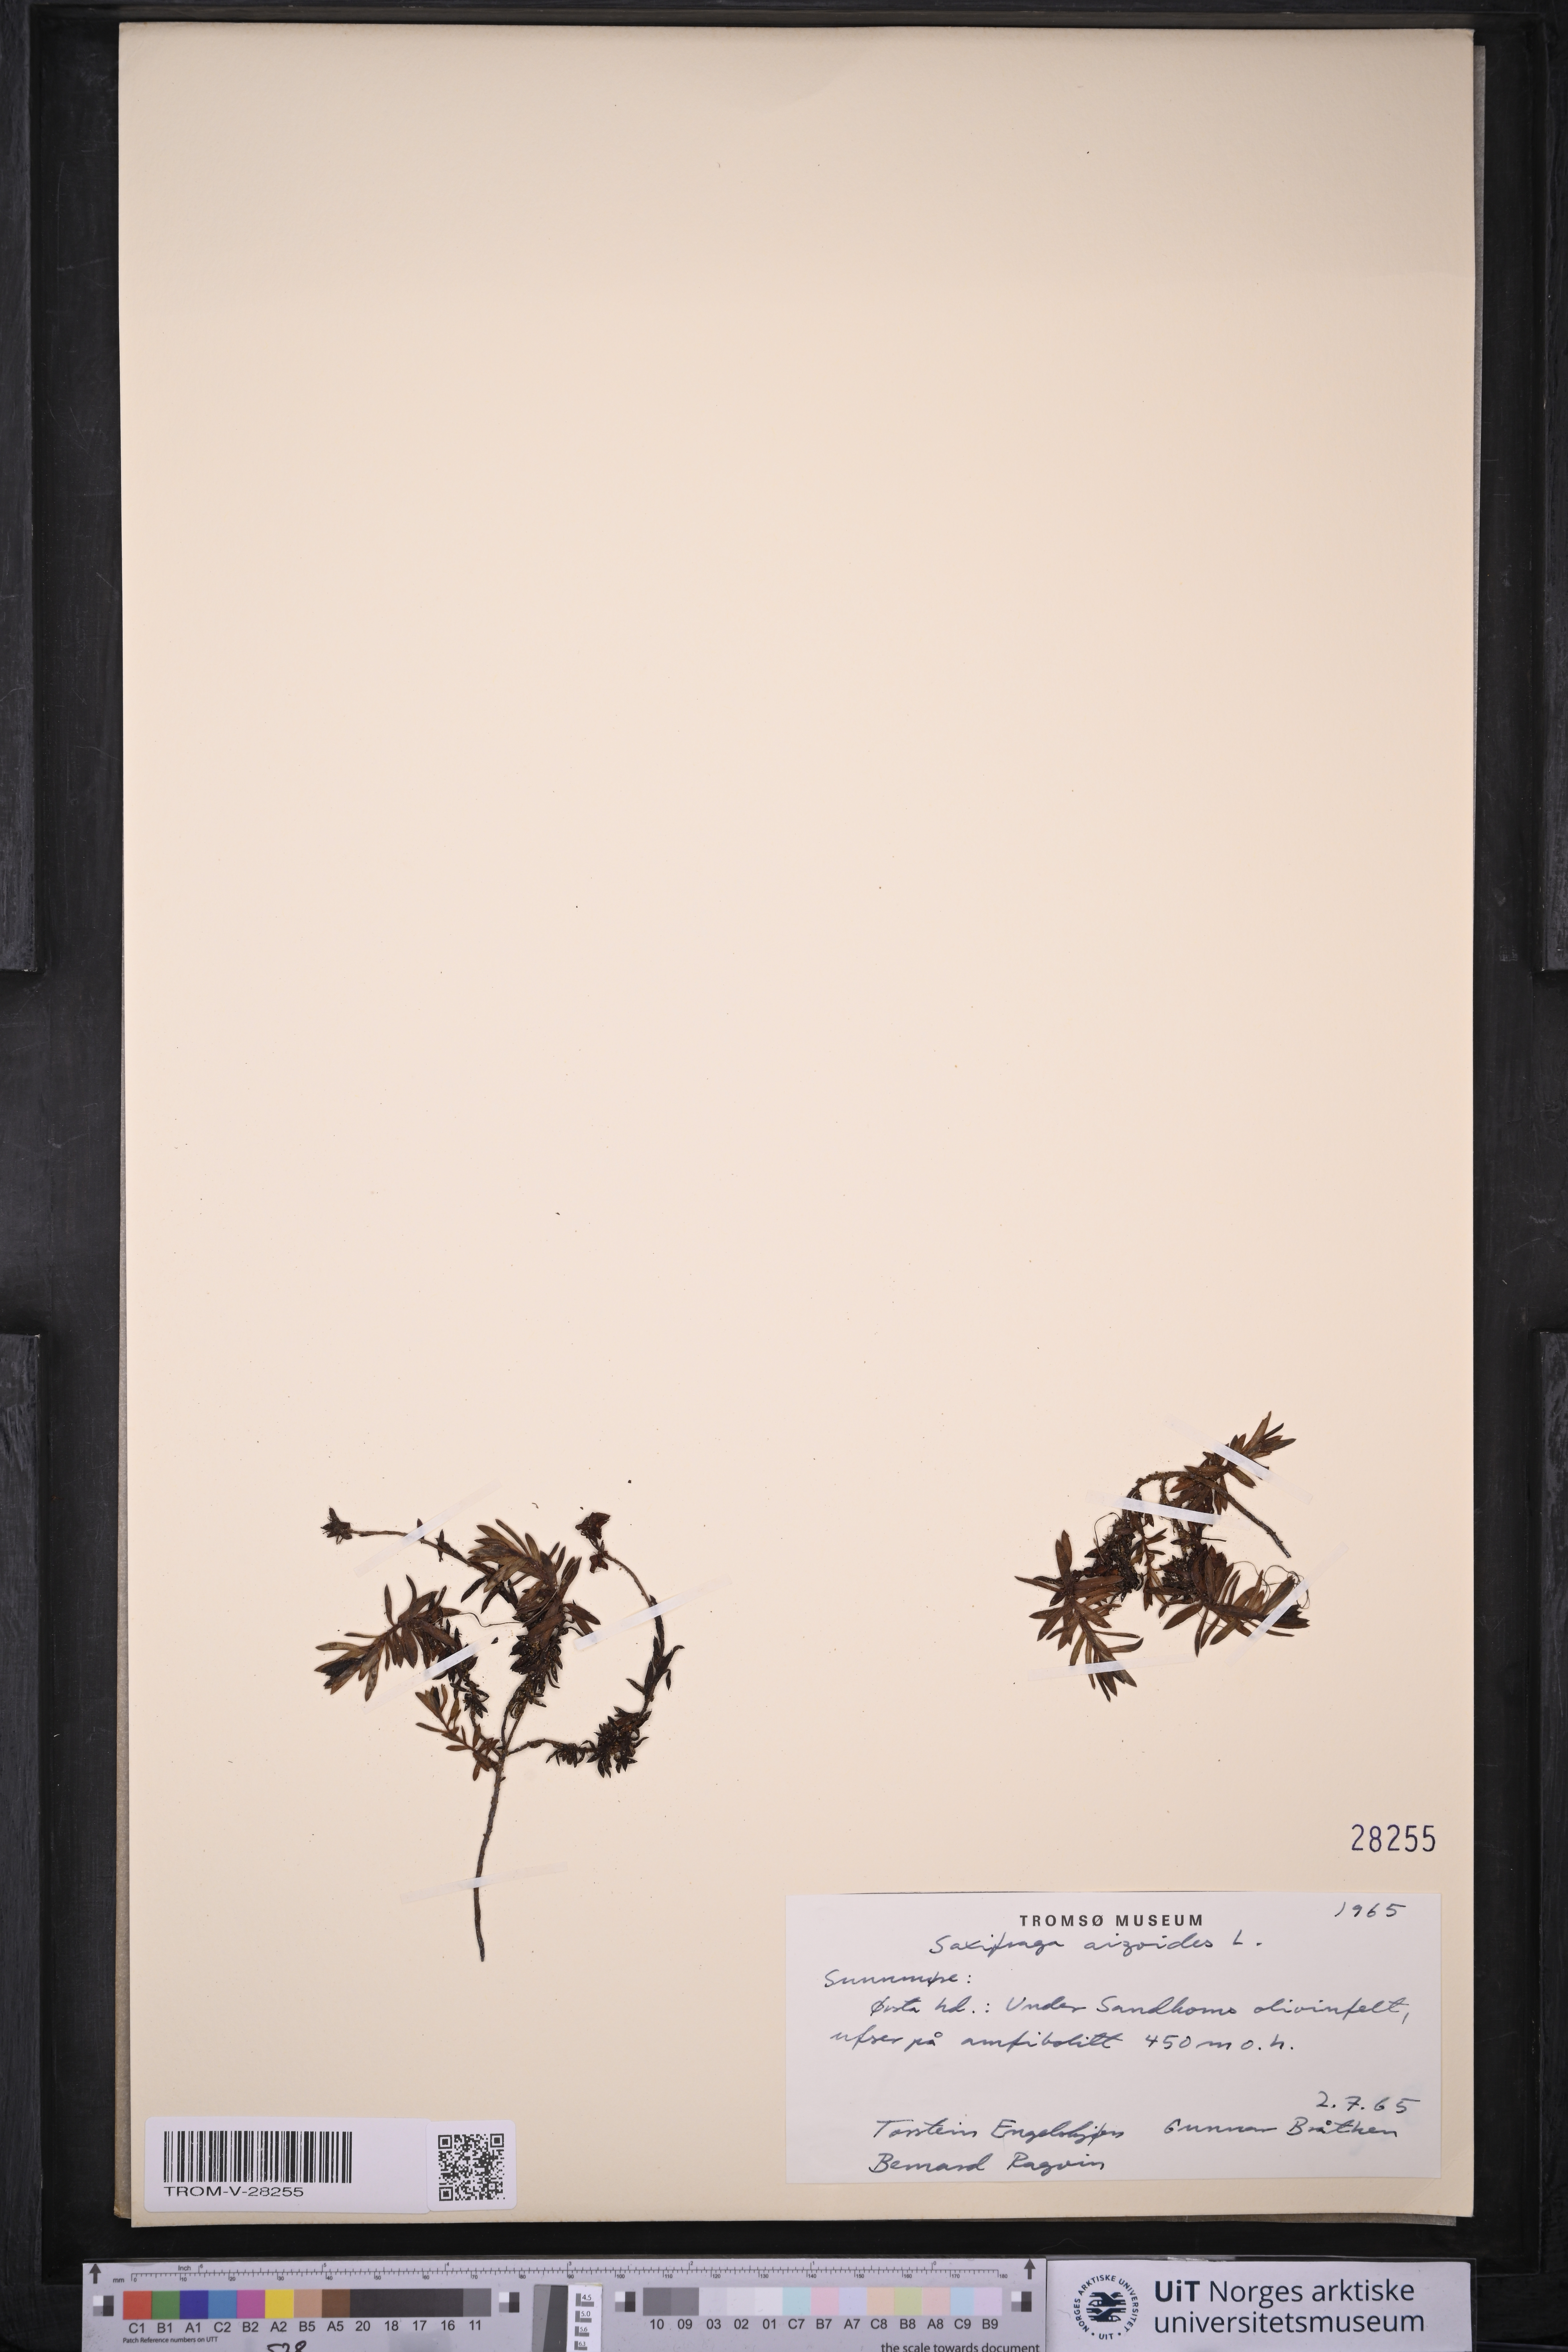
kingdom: Plantae
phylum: Tracheophyta
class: Magnoliopsida
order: Saxifragales
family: Saxifragaceae
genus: Saxifraga
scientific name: Saxifraga aizoides
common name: Yellow mountain saxifrage
